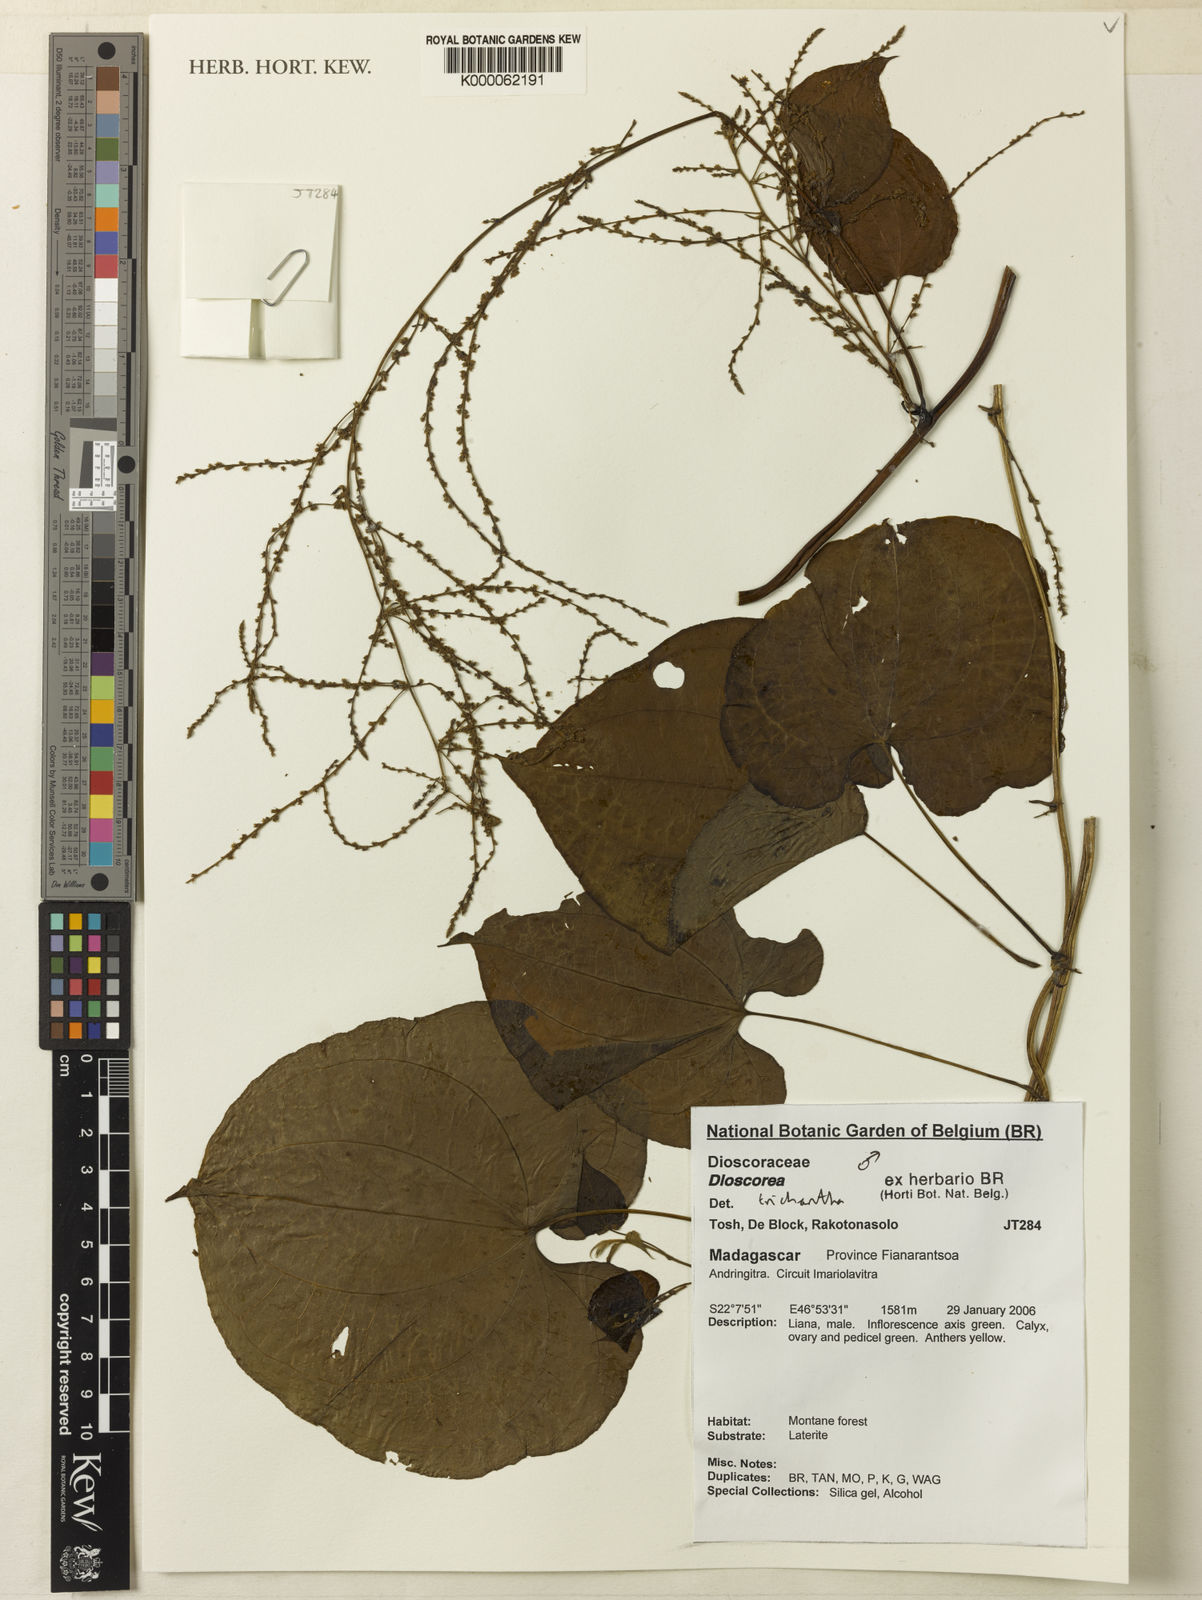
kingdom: Plantae
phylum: Tracheophyta
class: Liliopsida
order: Dioscoreales
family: Dioscoreaceae
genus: Dioscorea
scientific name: Dioscorea trichantha
